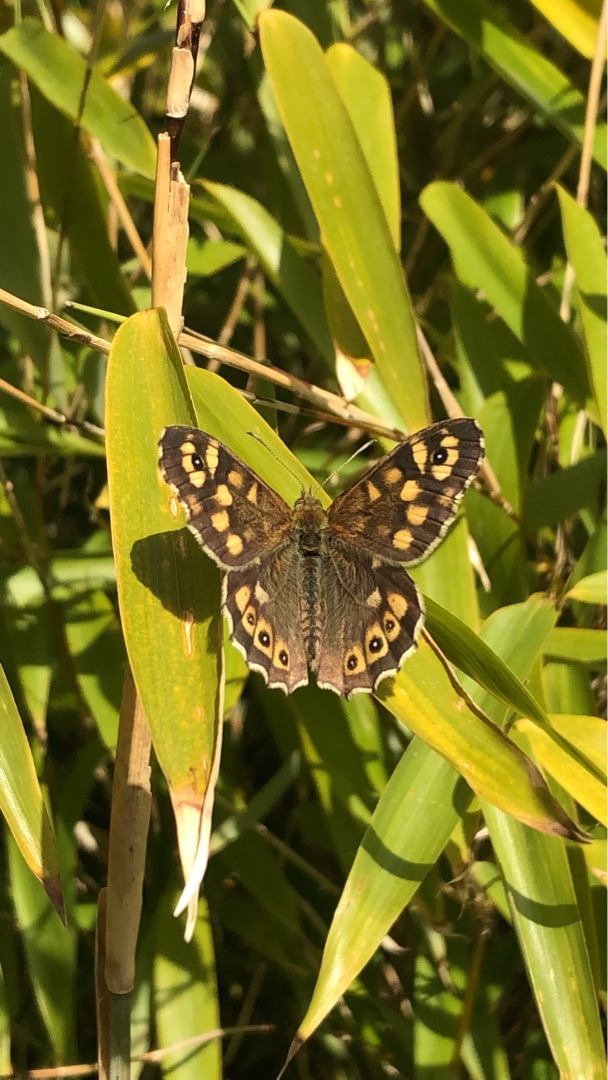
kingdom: Animalia
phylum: Arthropoda
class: Insecta
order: Lepidoptera
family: Nymphalidae
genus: Pararge
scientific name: Pararge aegeria
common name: Skovrandøje
